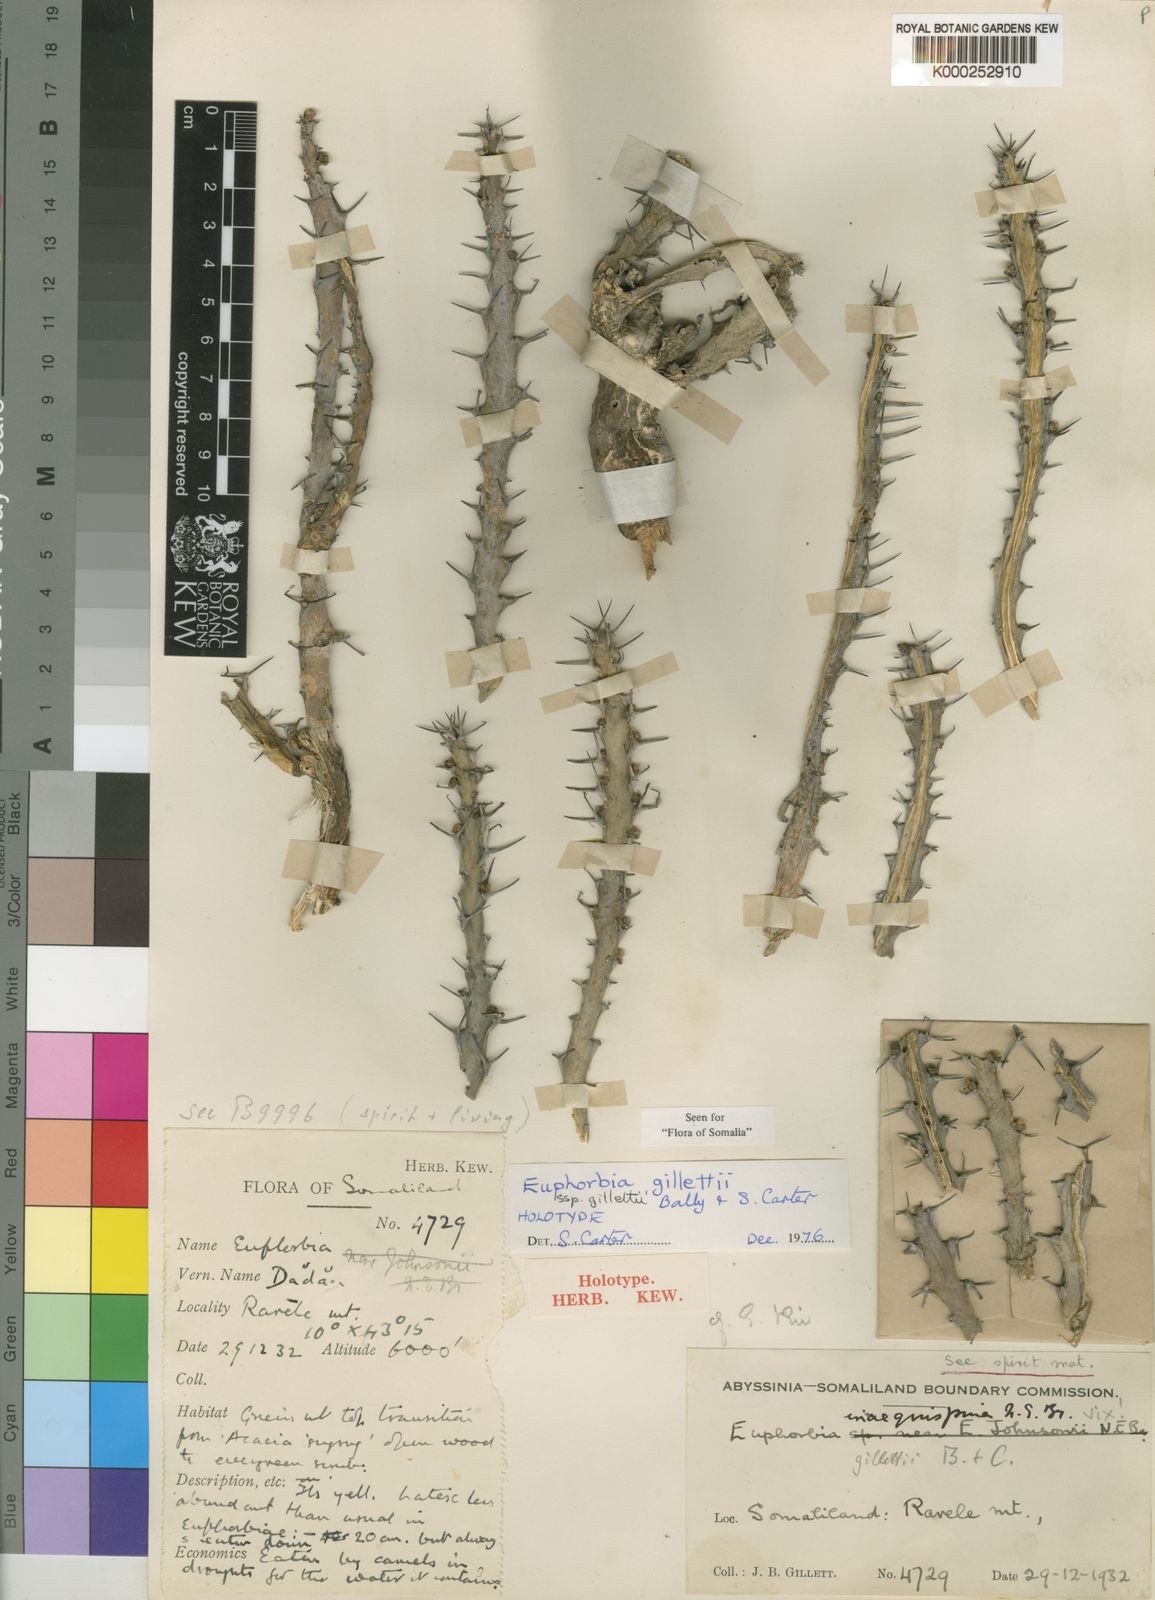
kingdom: Plantae
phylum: Tracheophyta
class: Magnoliopsida
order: Malpighiales
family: Euphorbiaceae
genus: Euphorbia
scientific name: Euphorbia gillettii
